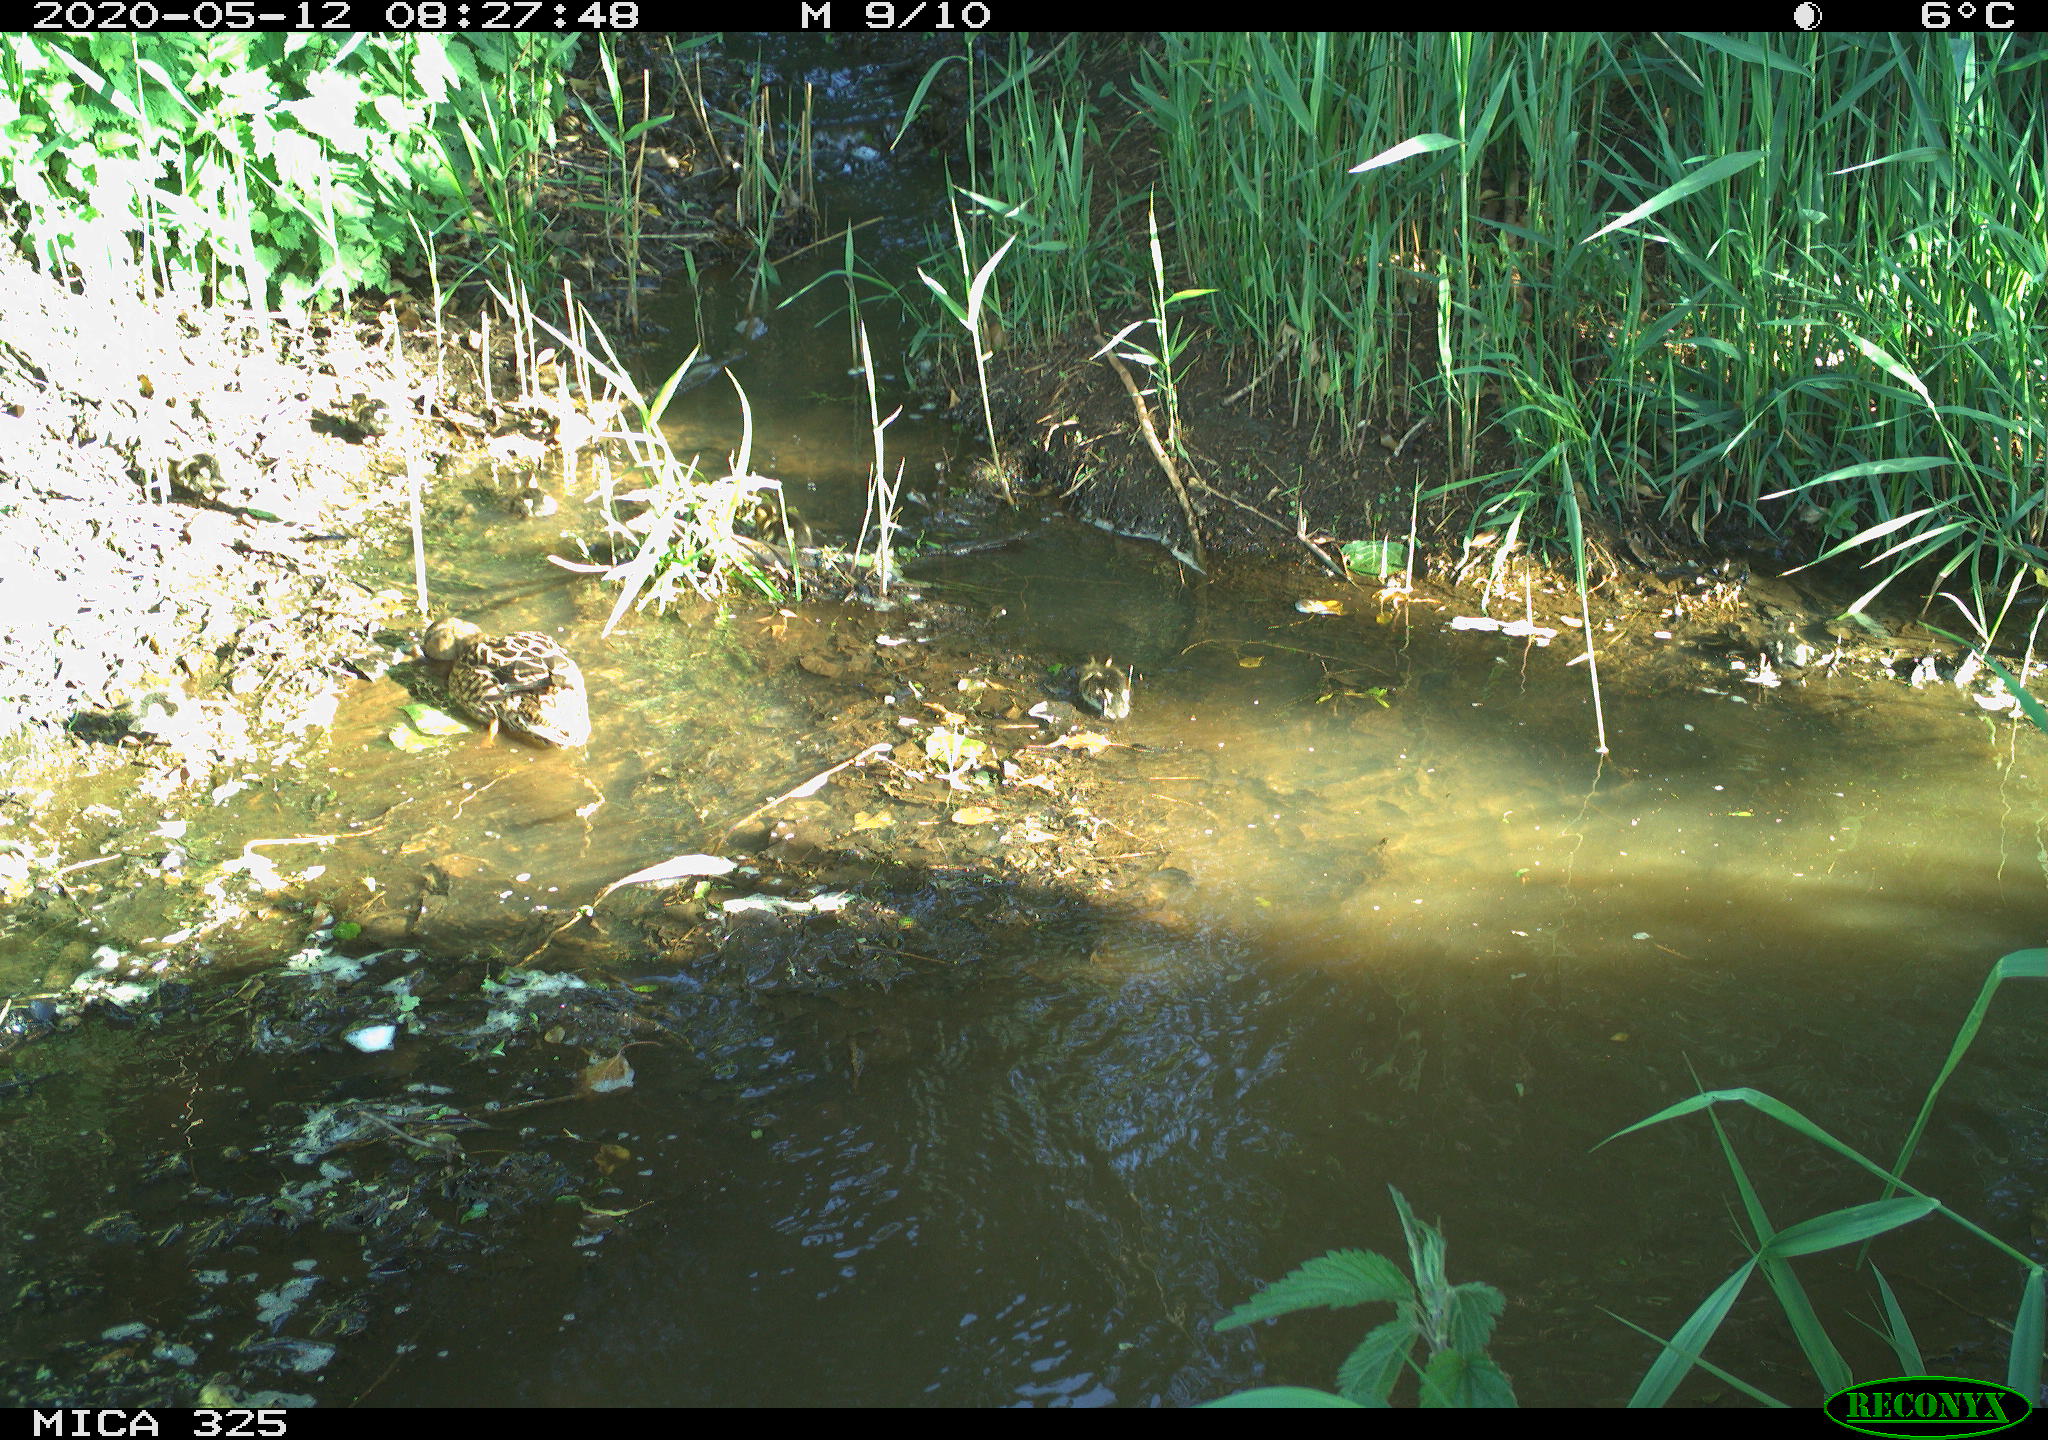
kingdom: Animalia
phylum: Chordata
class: Aves
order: Anseriformes
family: Anatidae
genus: Anas
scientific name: Anas platyrhynchos
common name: Mallard
